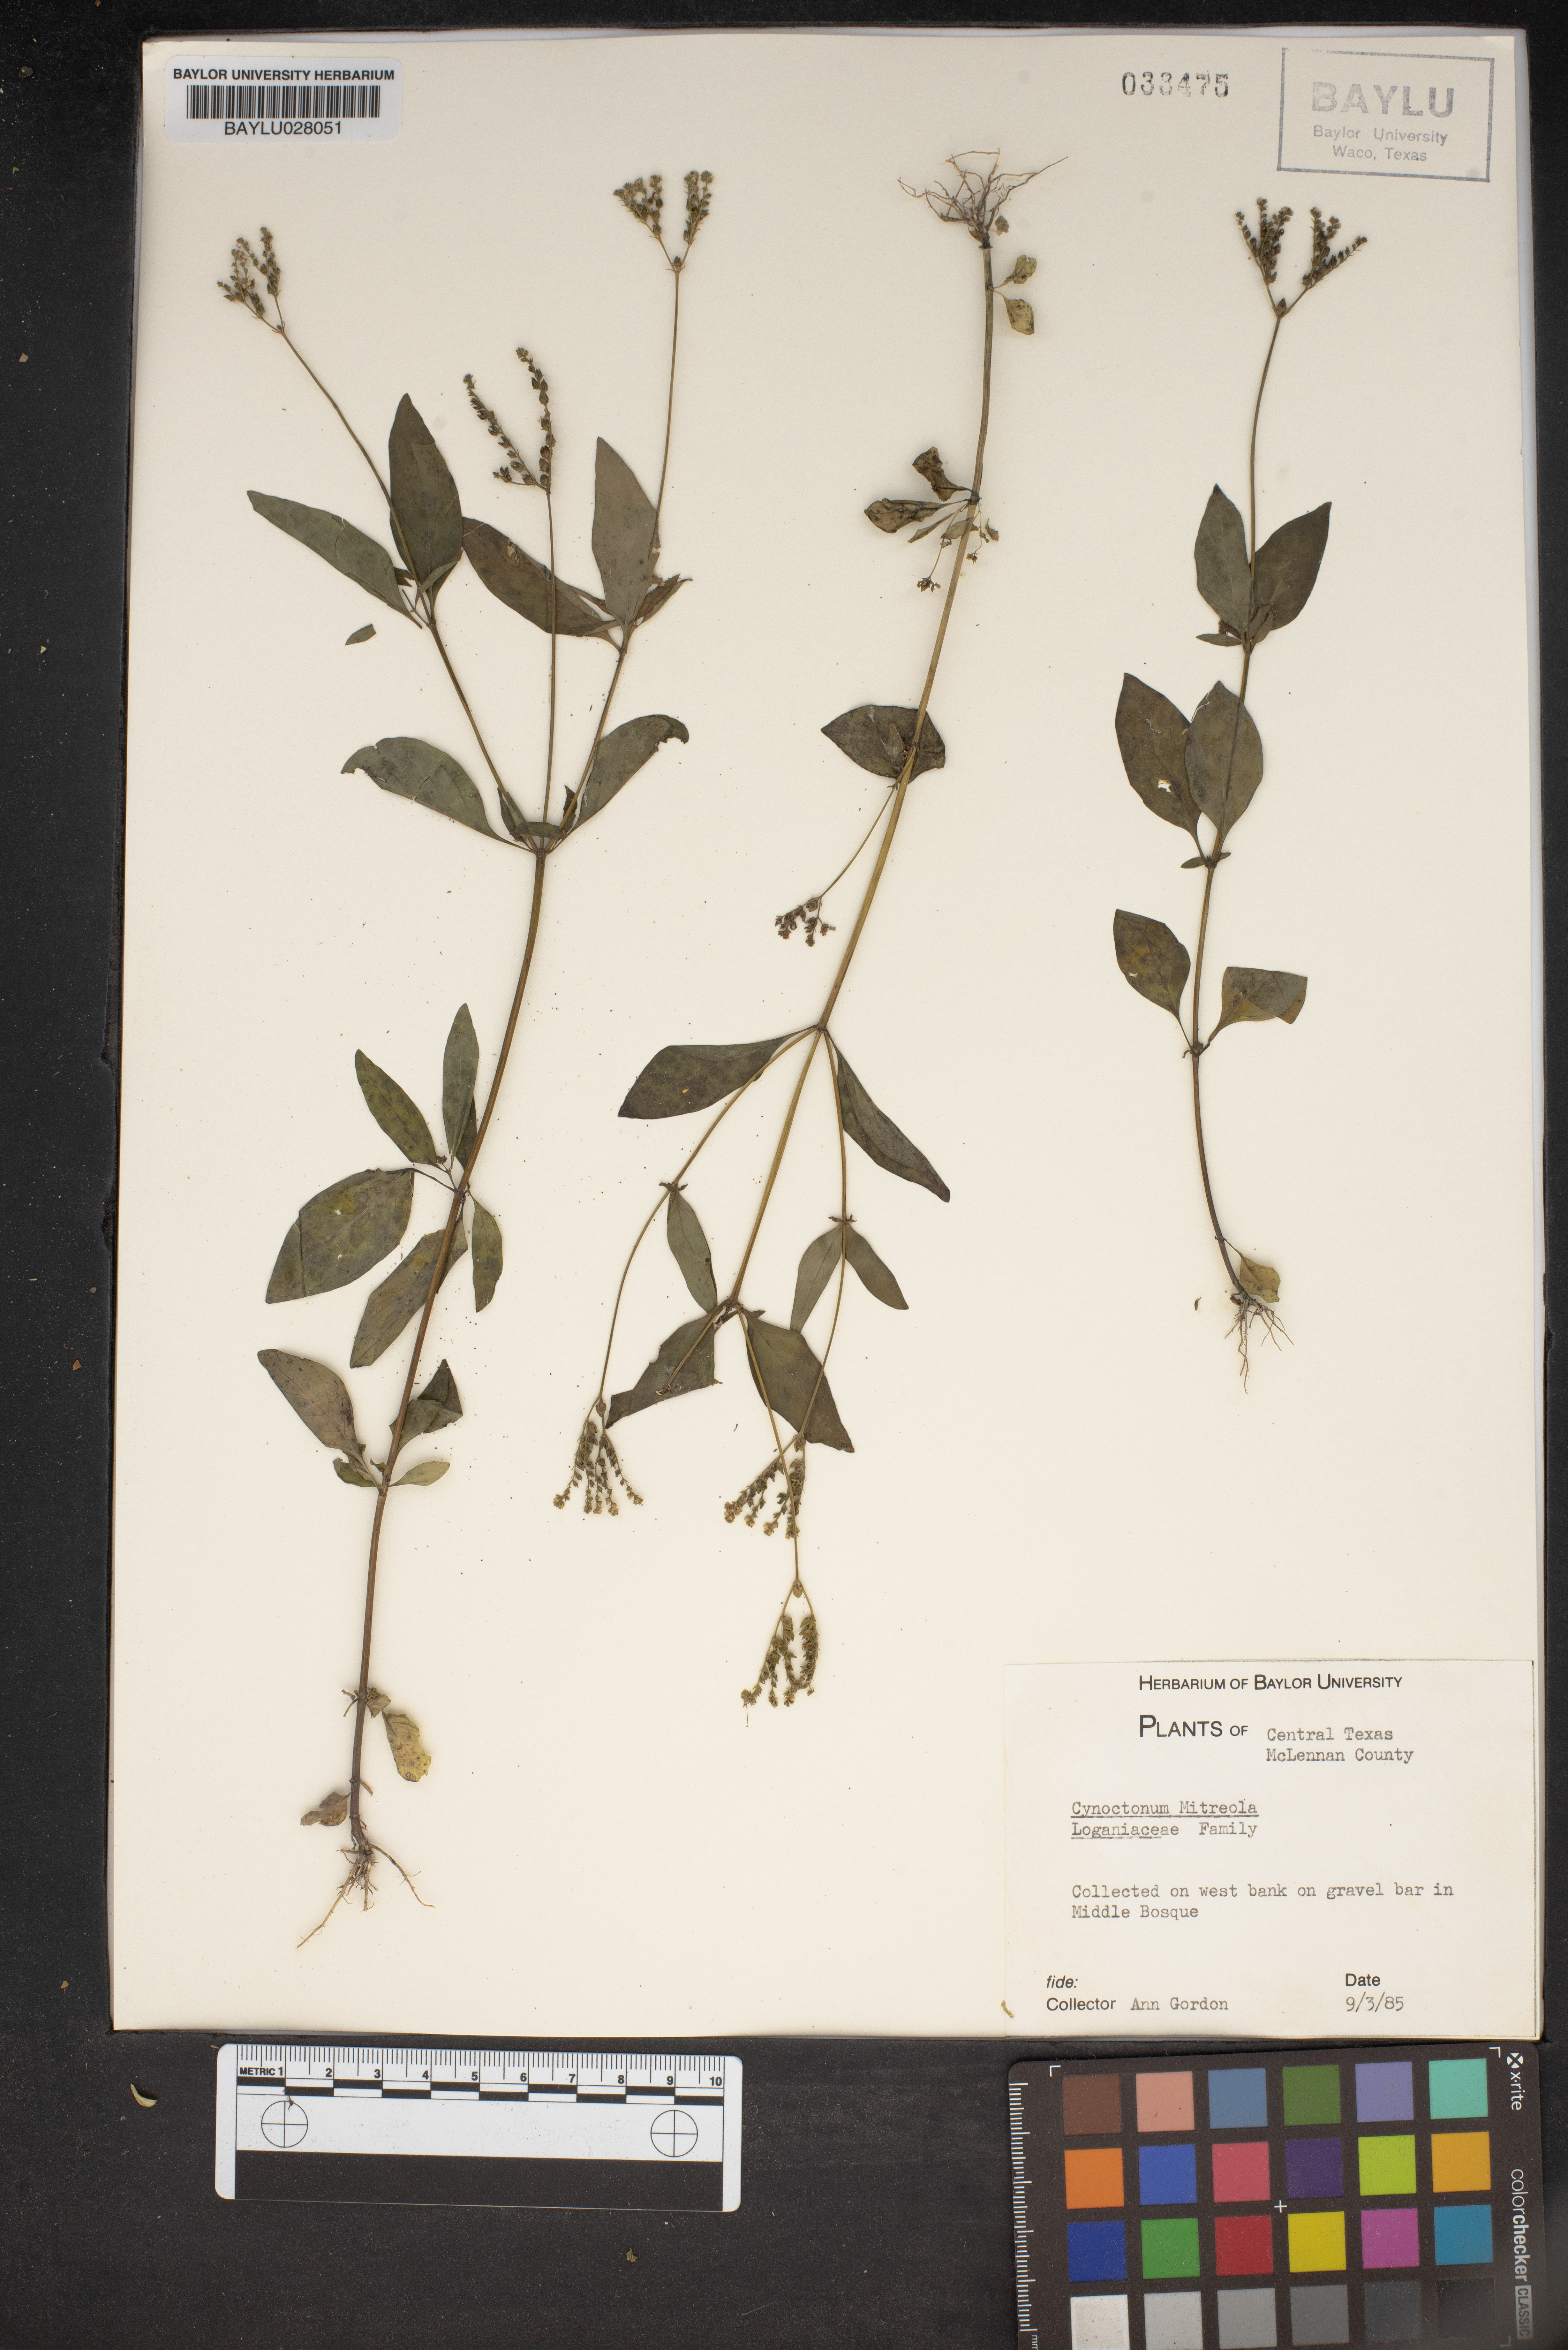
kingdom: Plantae
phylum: Tracheophyta
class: Magnoliopsida
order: Gentianales
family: Loganiaceae
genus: Mitreola
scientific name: Mitreola petiolata
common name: Lax hornpod
